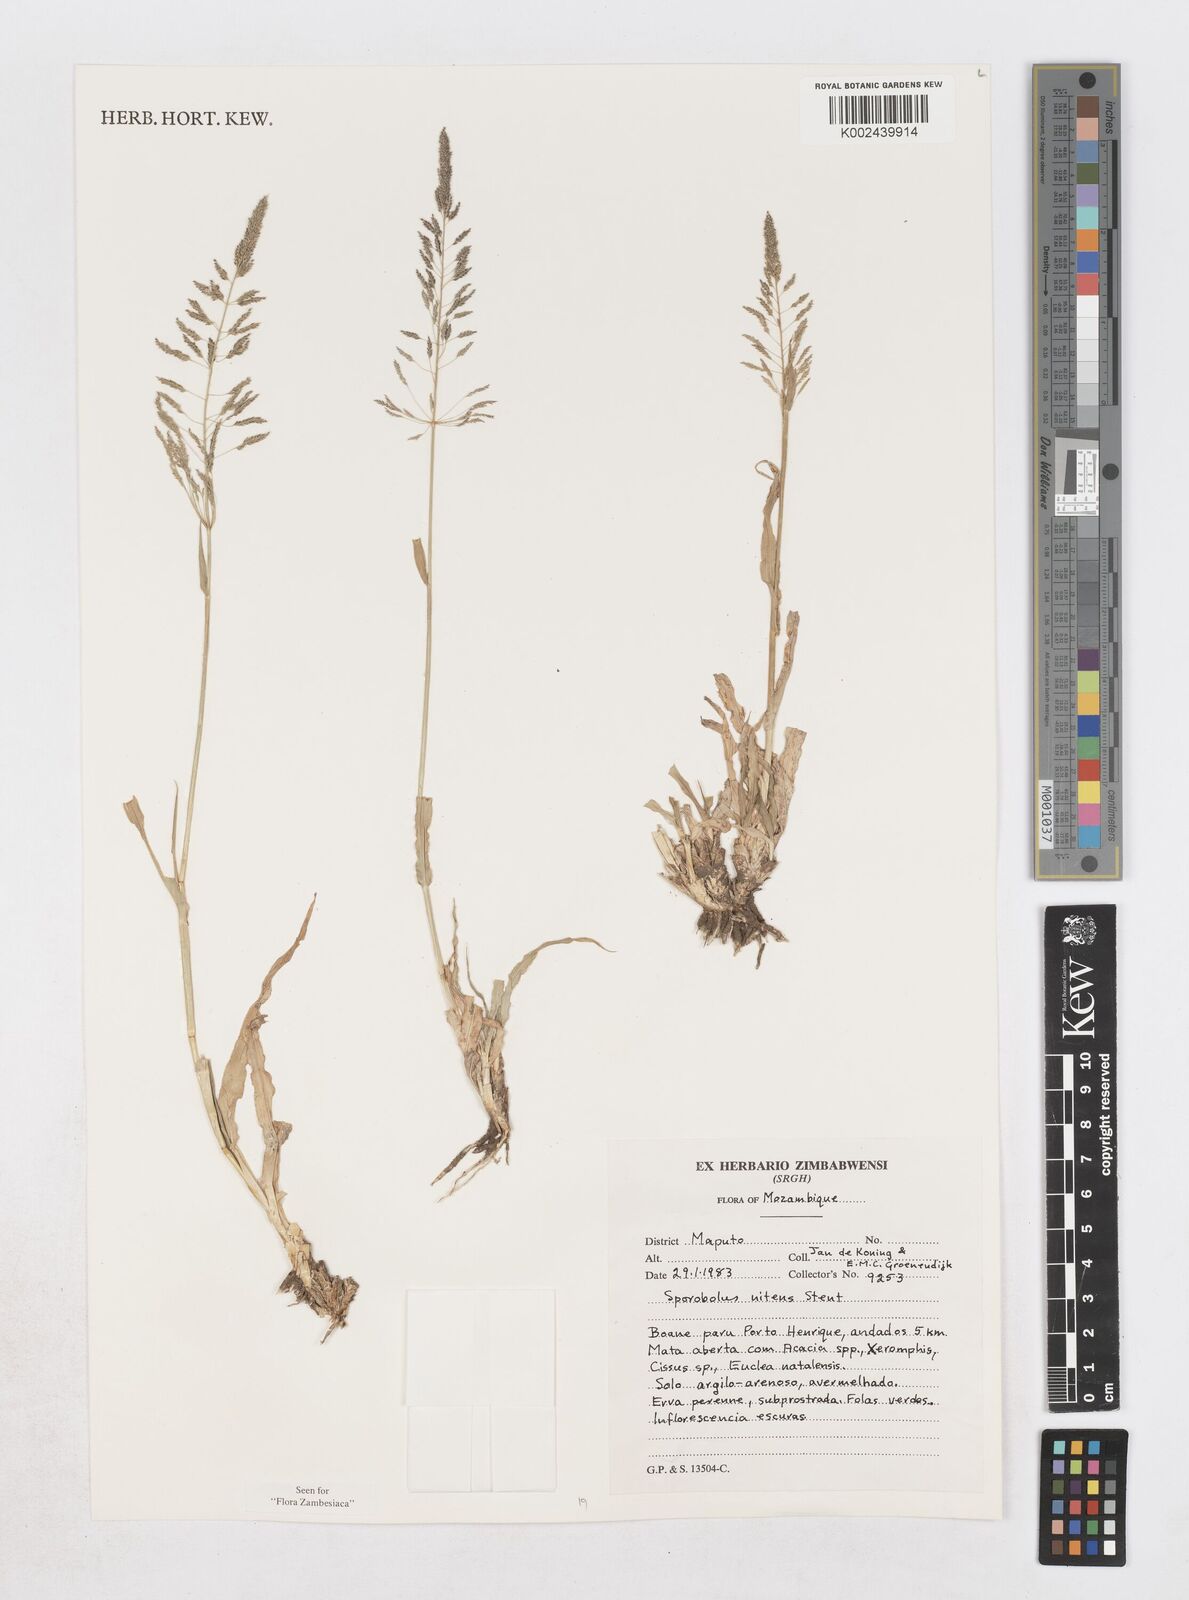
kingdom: Plantae
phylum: Tracheophyta
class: Liliopsida
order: Poales
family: Poaceae
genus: Sporobolus
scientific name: Sporobolus nitens
